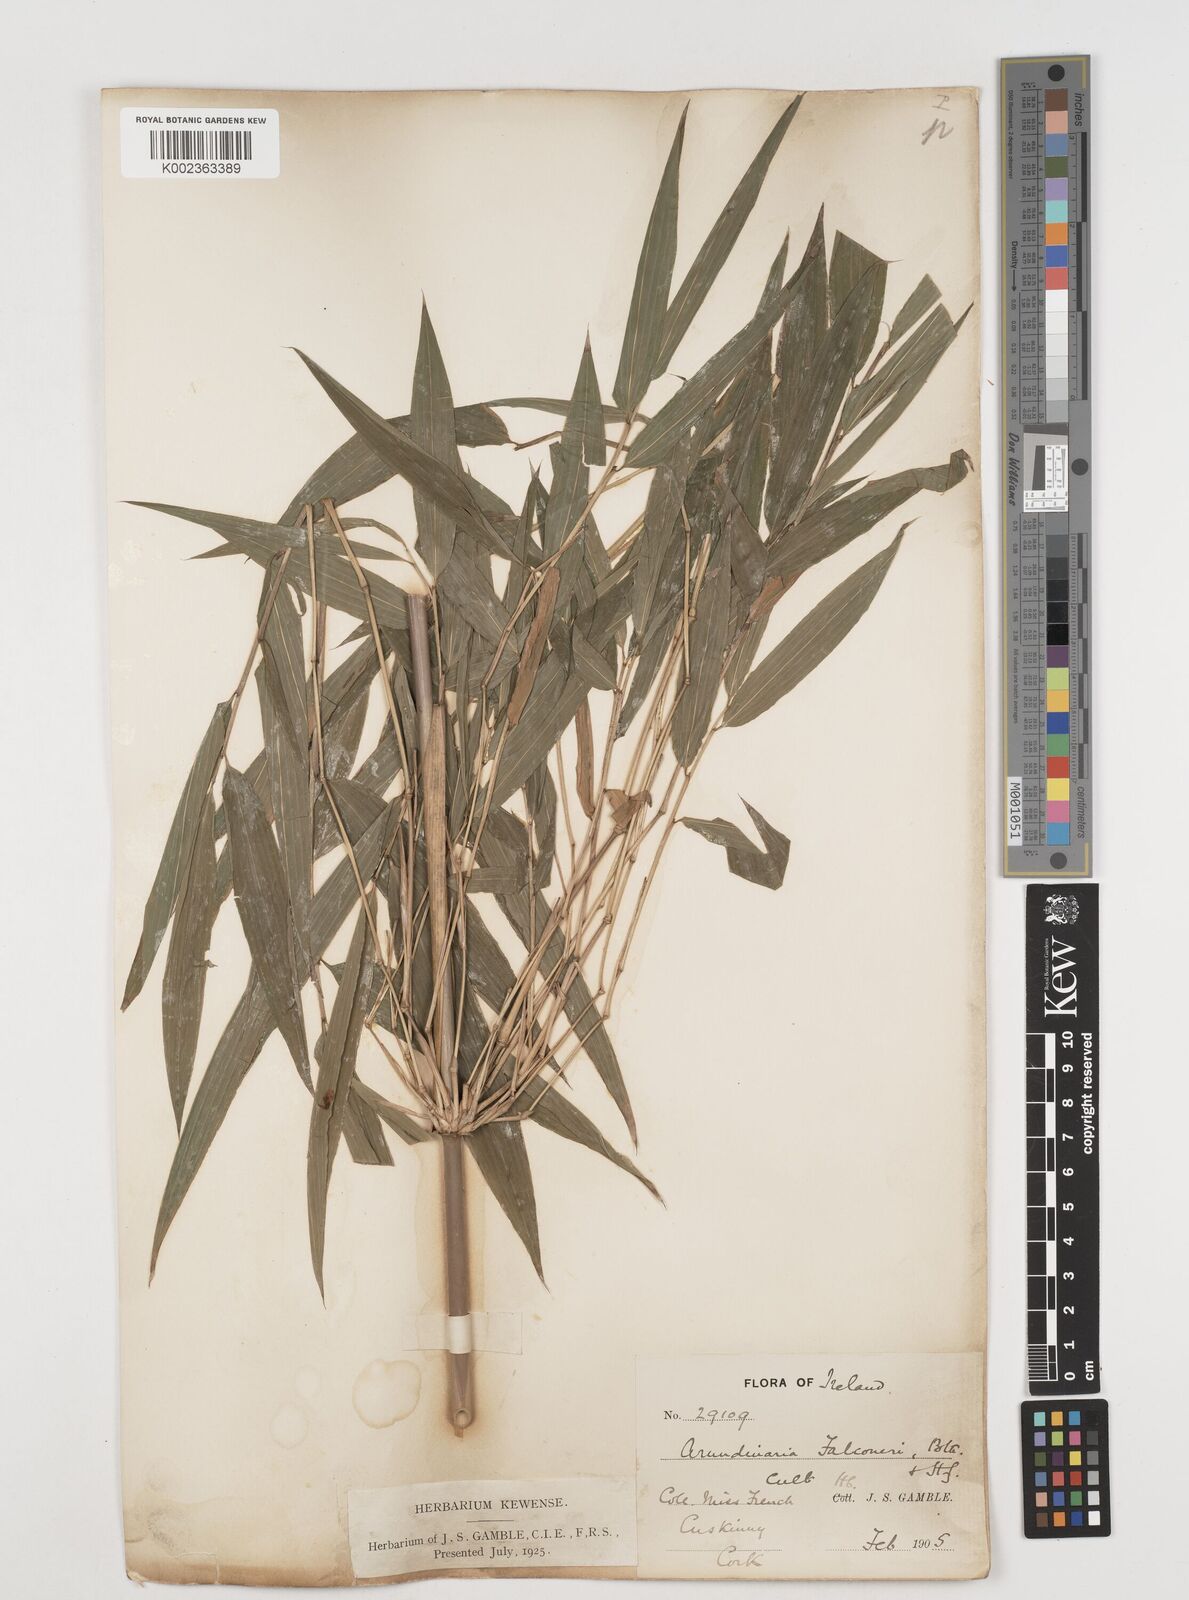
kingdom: Plantae
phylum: Tracheophyta
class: Liliopsida
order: Poales
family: Poaceae
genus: Himalayacalamus
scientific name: Himalayacalamus
